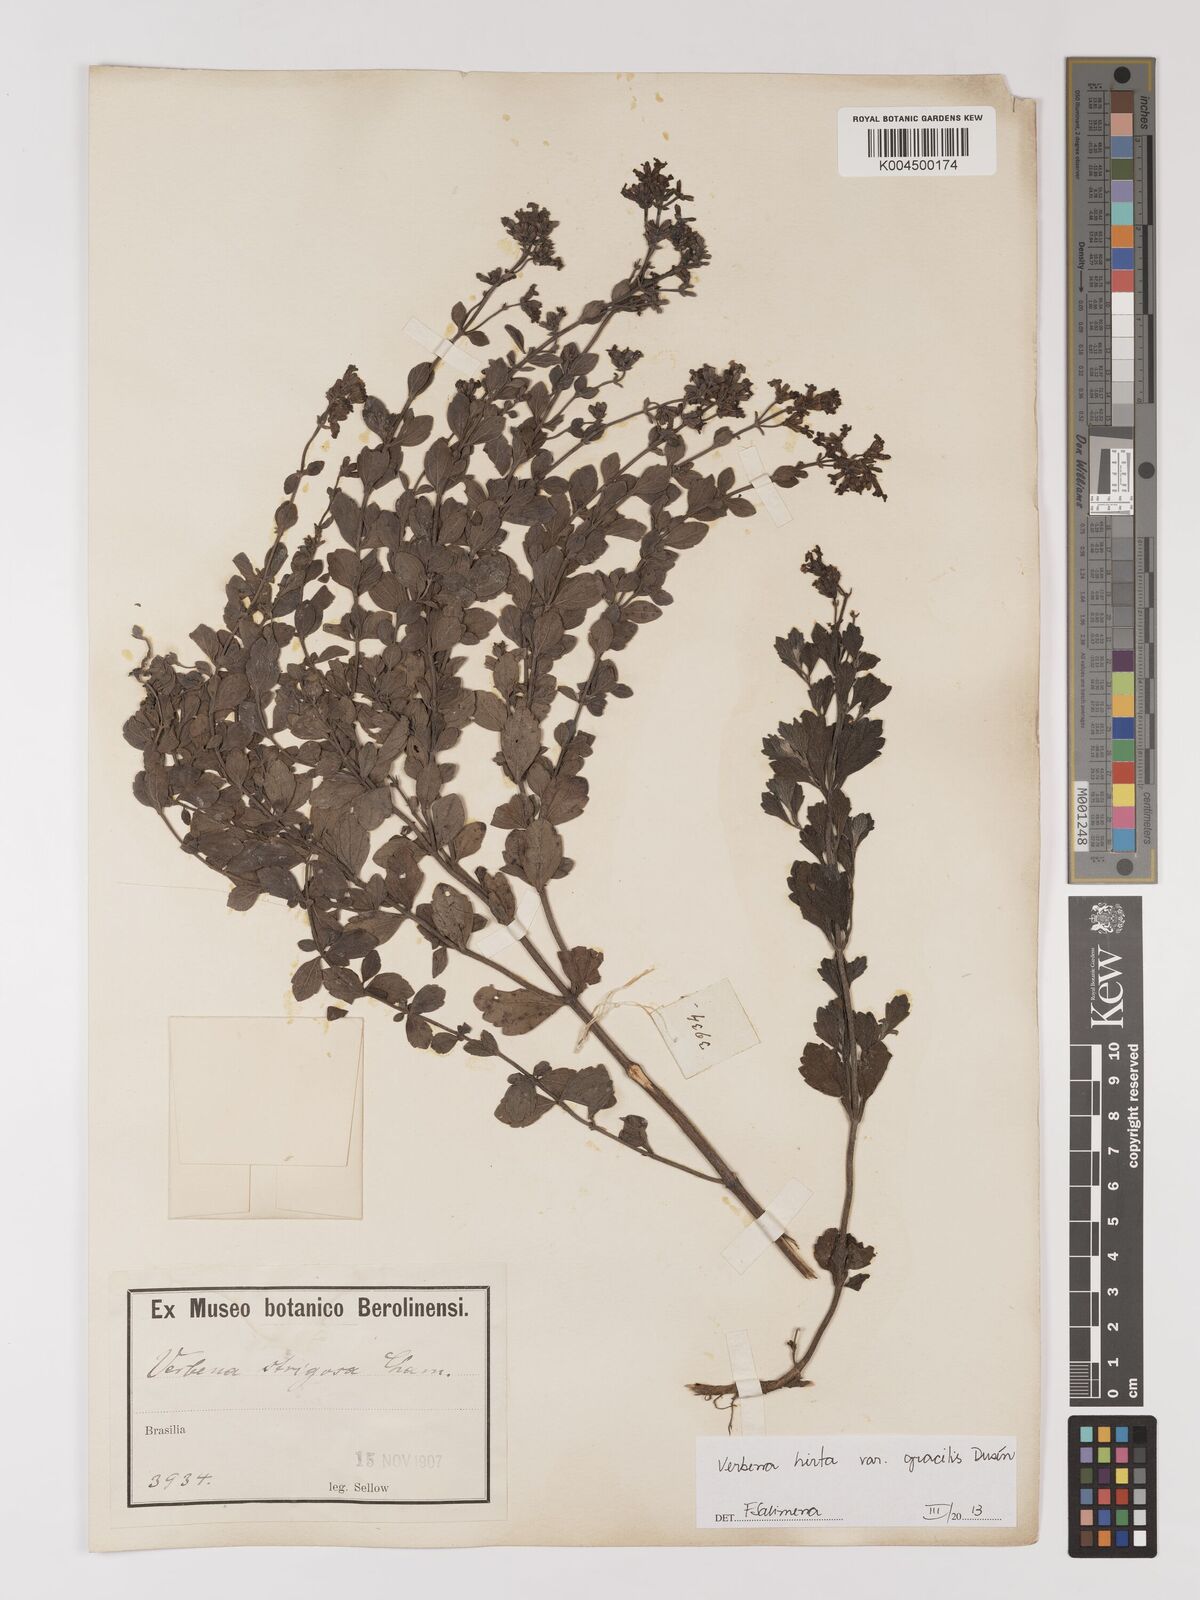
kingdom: Plantae
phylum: Tracheophyta
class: Magnoliopsida
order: Lamiales
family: Verbenaceae
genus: Verbena
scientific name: Verbena hirta
